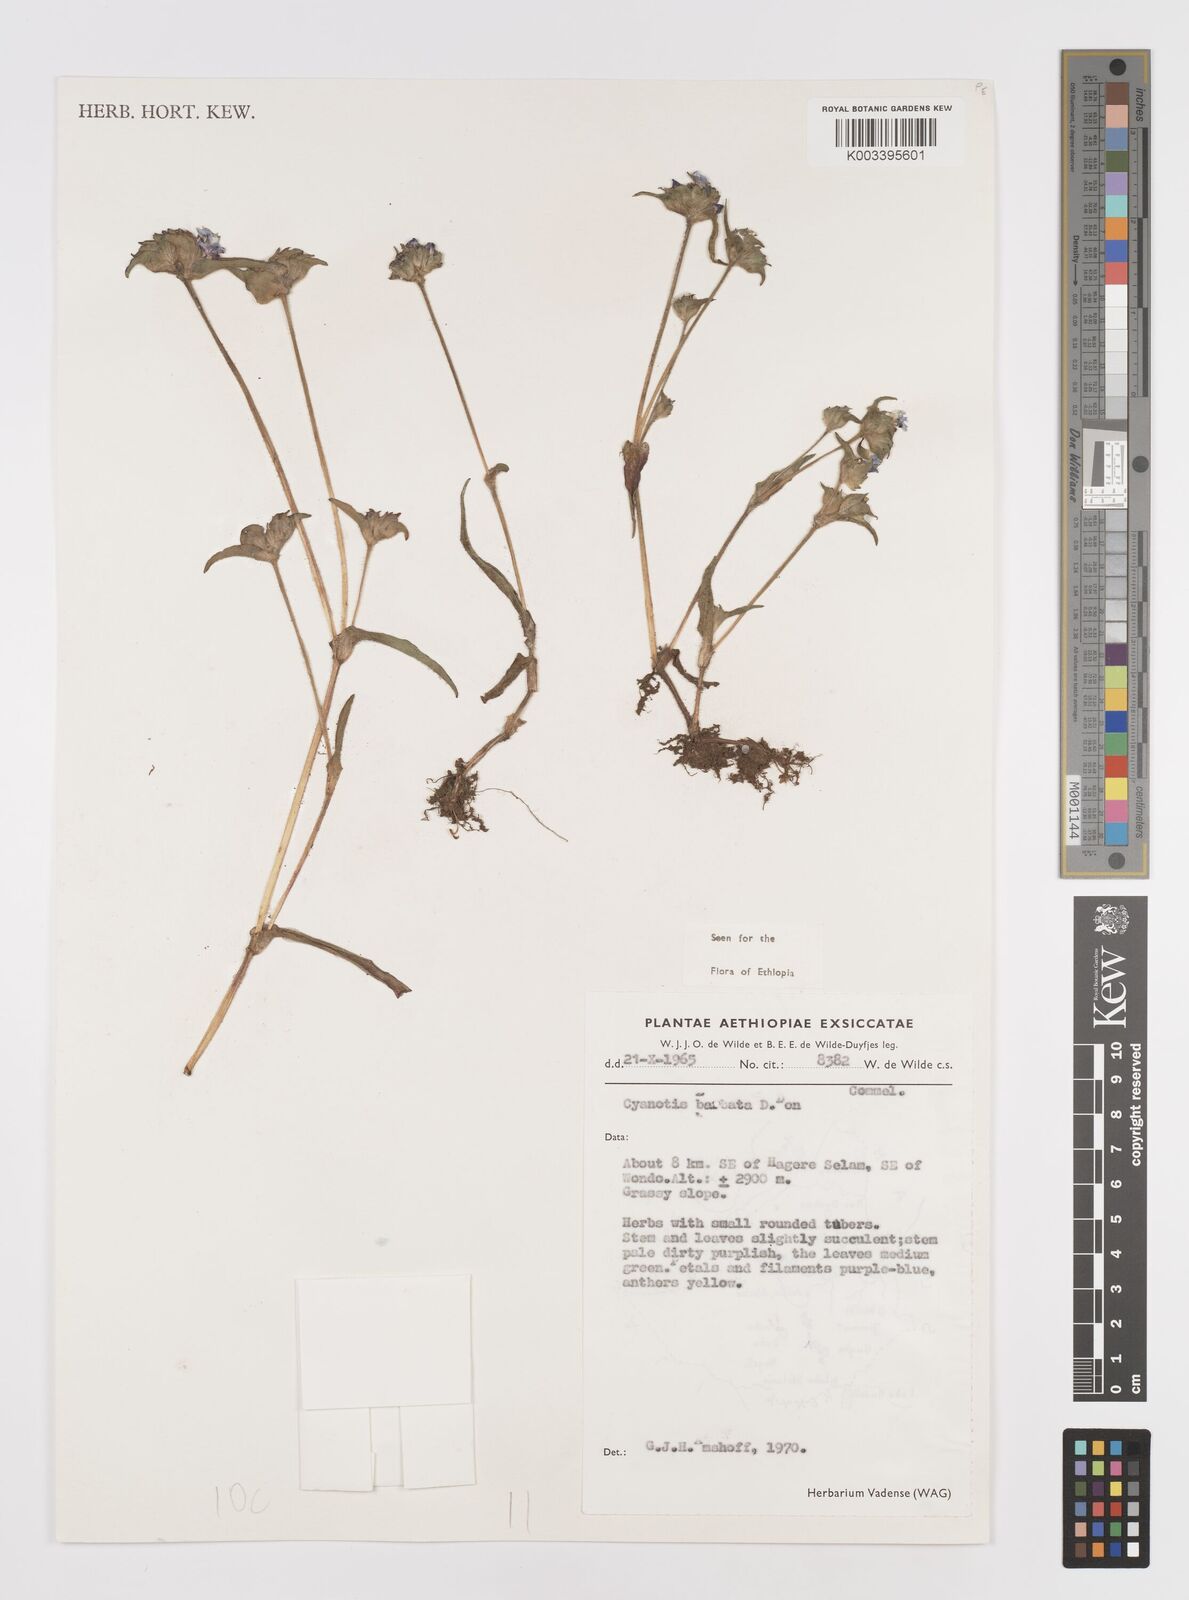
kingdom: Plantae
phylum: Tracheophyta
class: Liliopsida
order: Commelinales
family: Commelinaceae
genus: Cyanotis
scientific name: Cyanotis vaga
